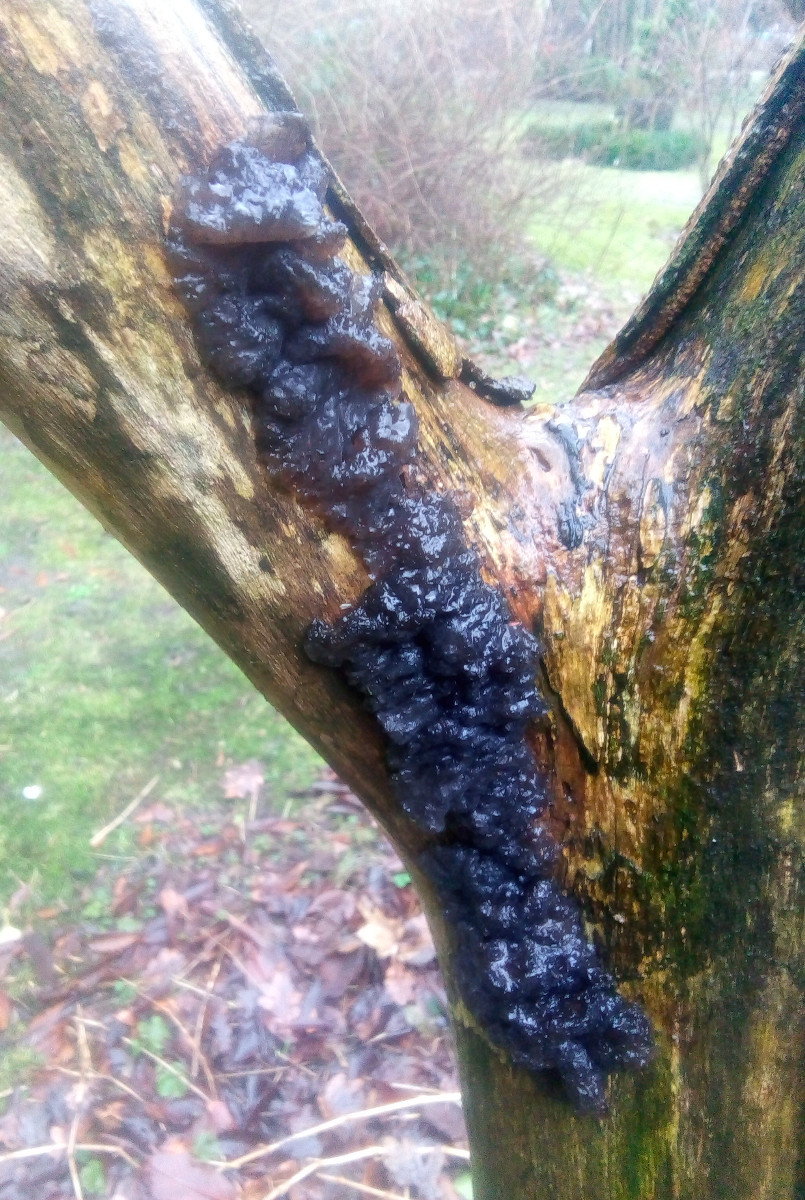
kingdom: Fungi
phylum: Basidiomycota
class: Agaricomycetes
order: Auriculariales
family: Auriculariaceae
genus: Exidia
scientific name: Exidia nigricans
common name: almindelig bævretop
